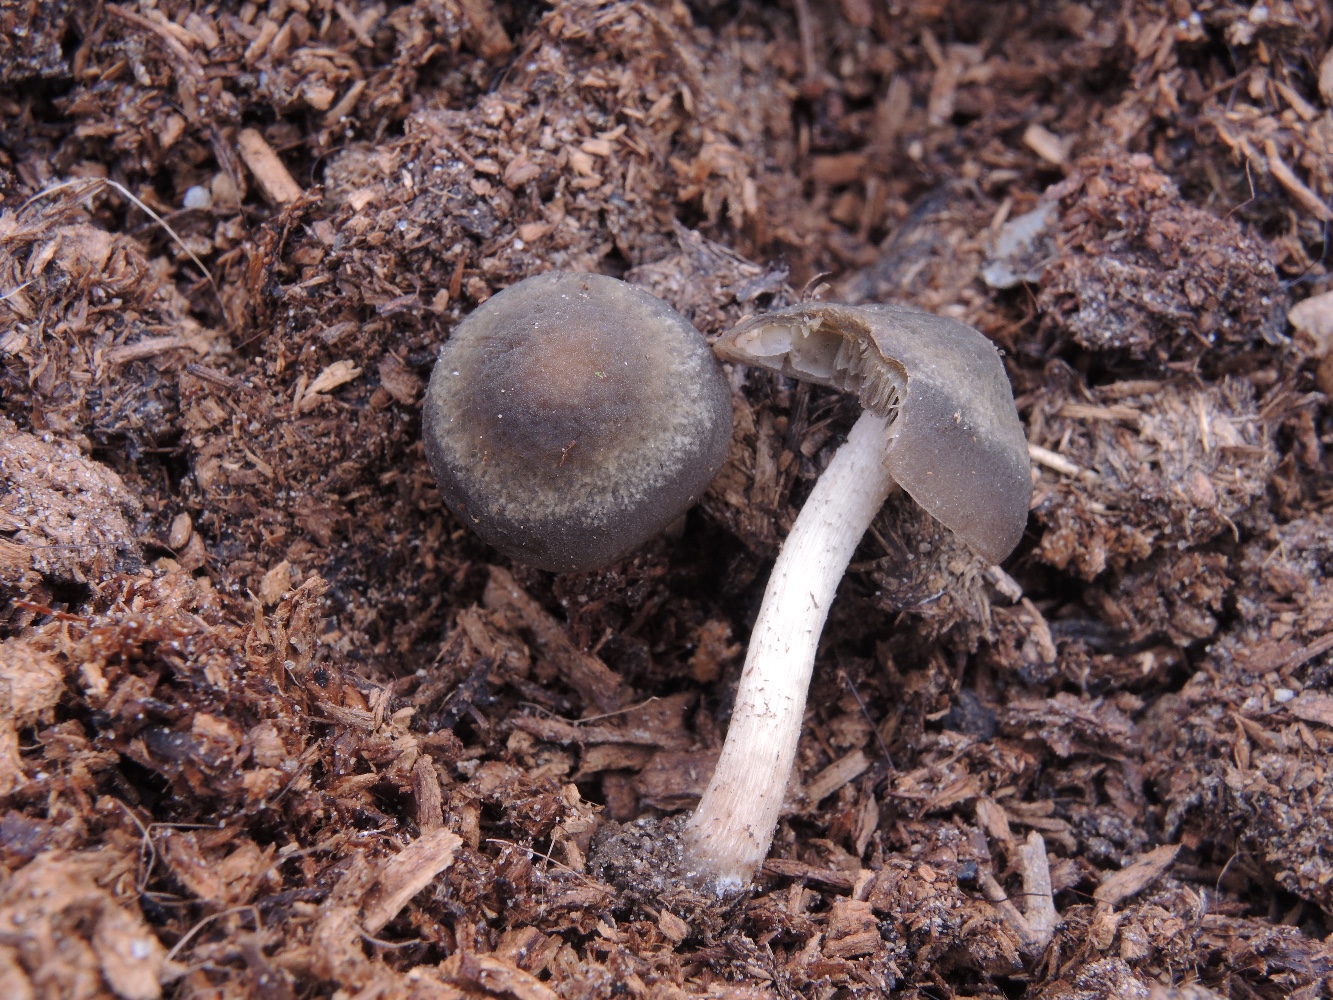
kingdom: Fungi
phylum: Basidiomycota
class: Agaricomycetes
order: Agaricales
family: Bolbitiaceae
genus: Panaeolus
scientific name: Panaeolus reticulatus
